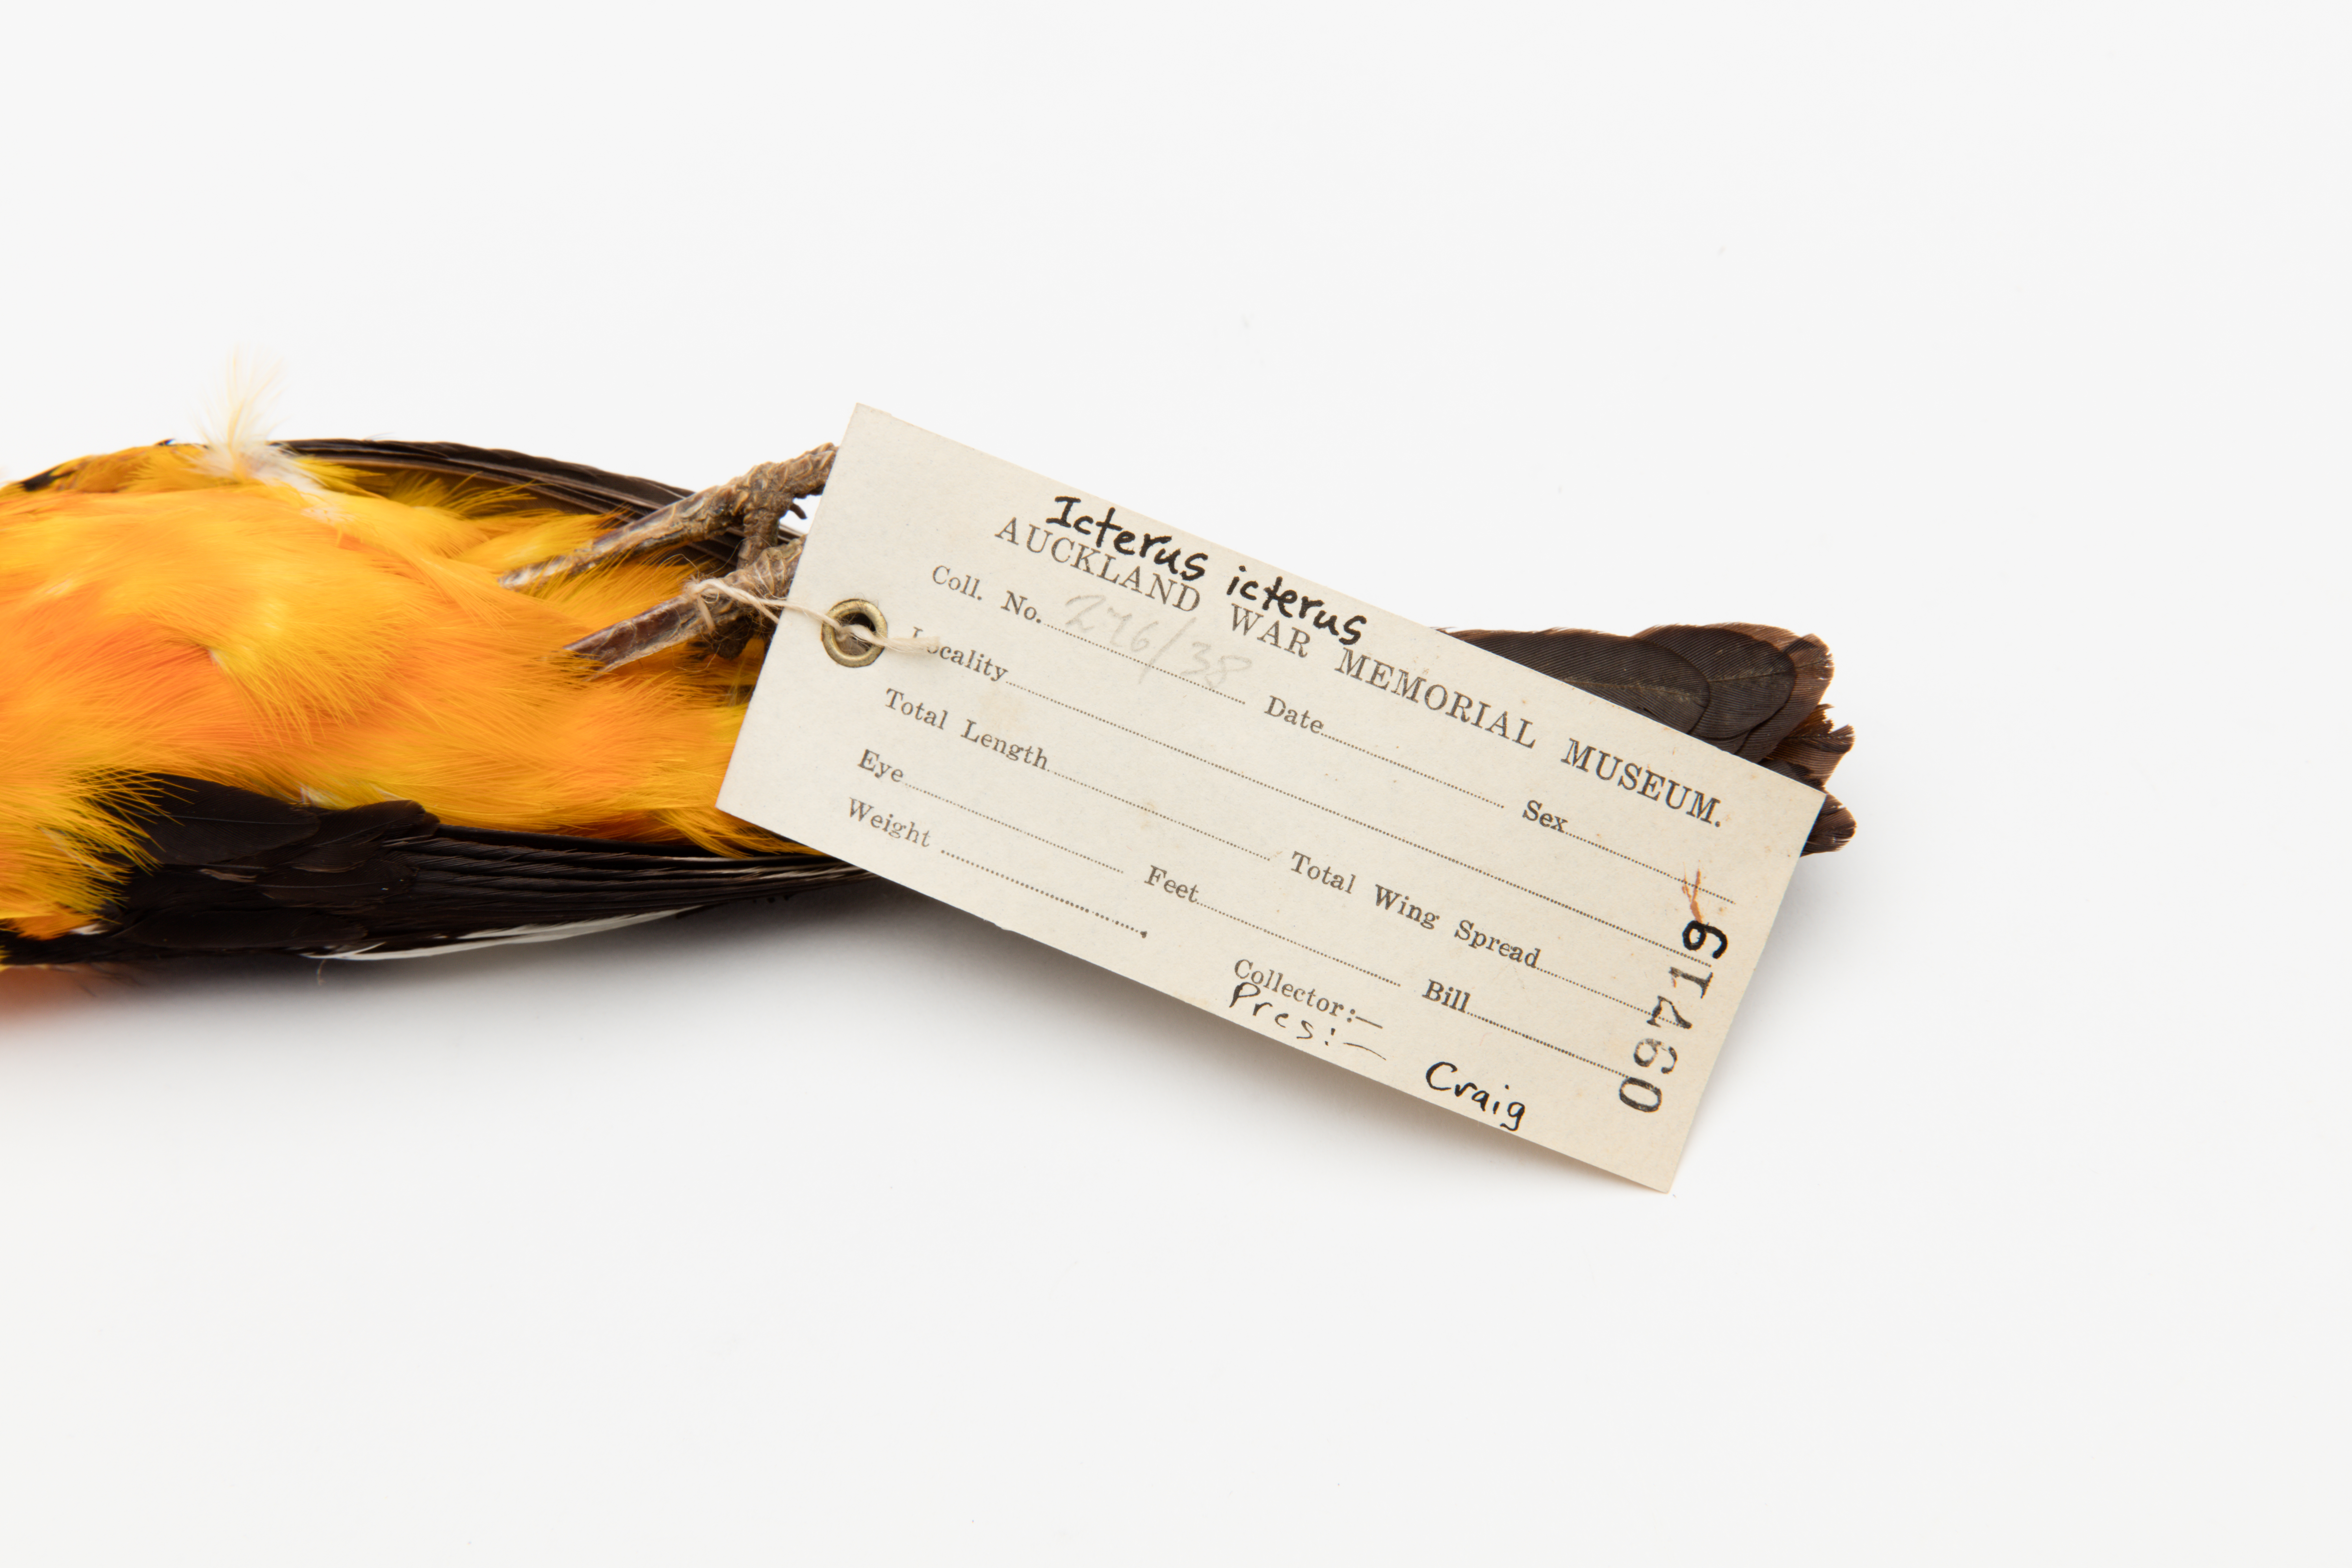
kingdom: Animalia
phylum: Chordata
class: Aves
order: Passeriformes
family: Icteridae
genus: Icterus
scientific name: Icterus icterus
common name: Venezuelan troupial
